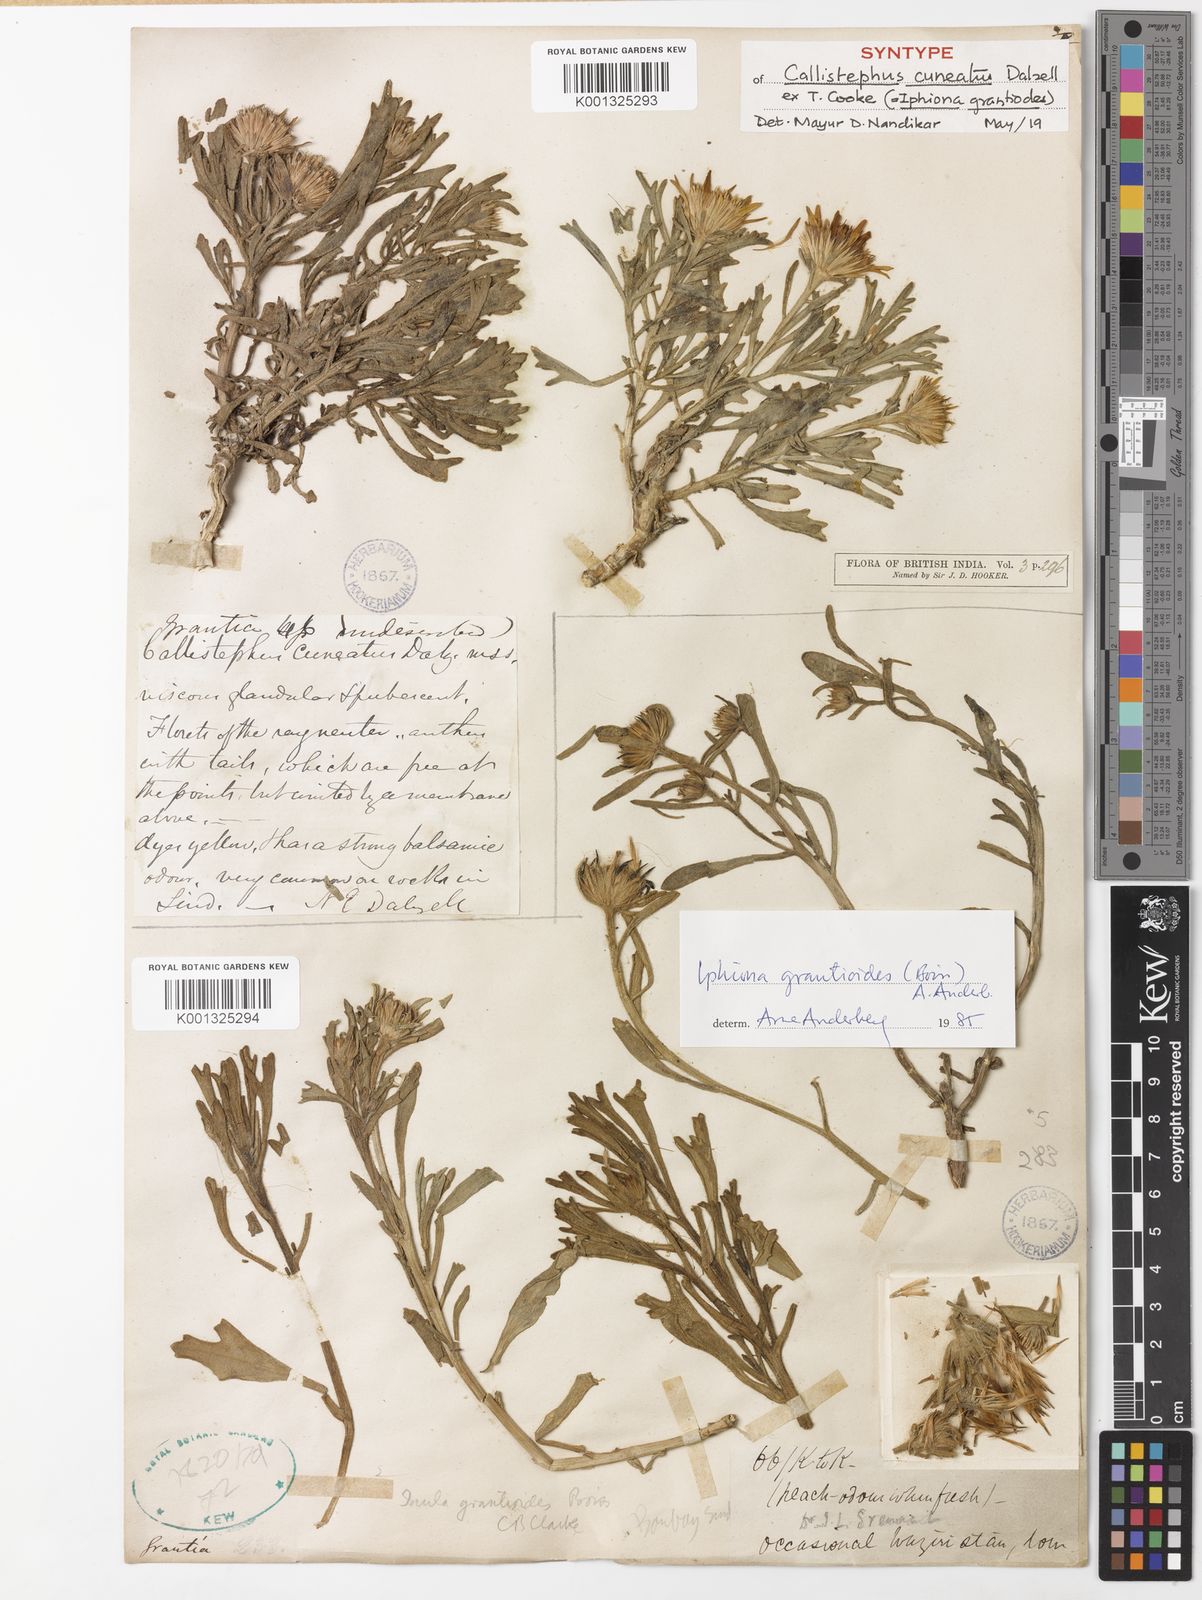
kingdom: Plantae
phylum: Tracheophyta
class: Magnoliopsida
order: Asterales
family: Asteraceae
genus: Iphiona
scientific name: Iphiona grantioides
